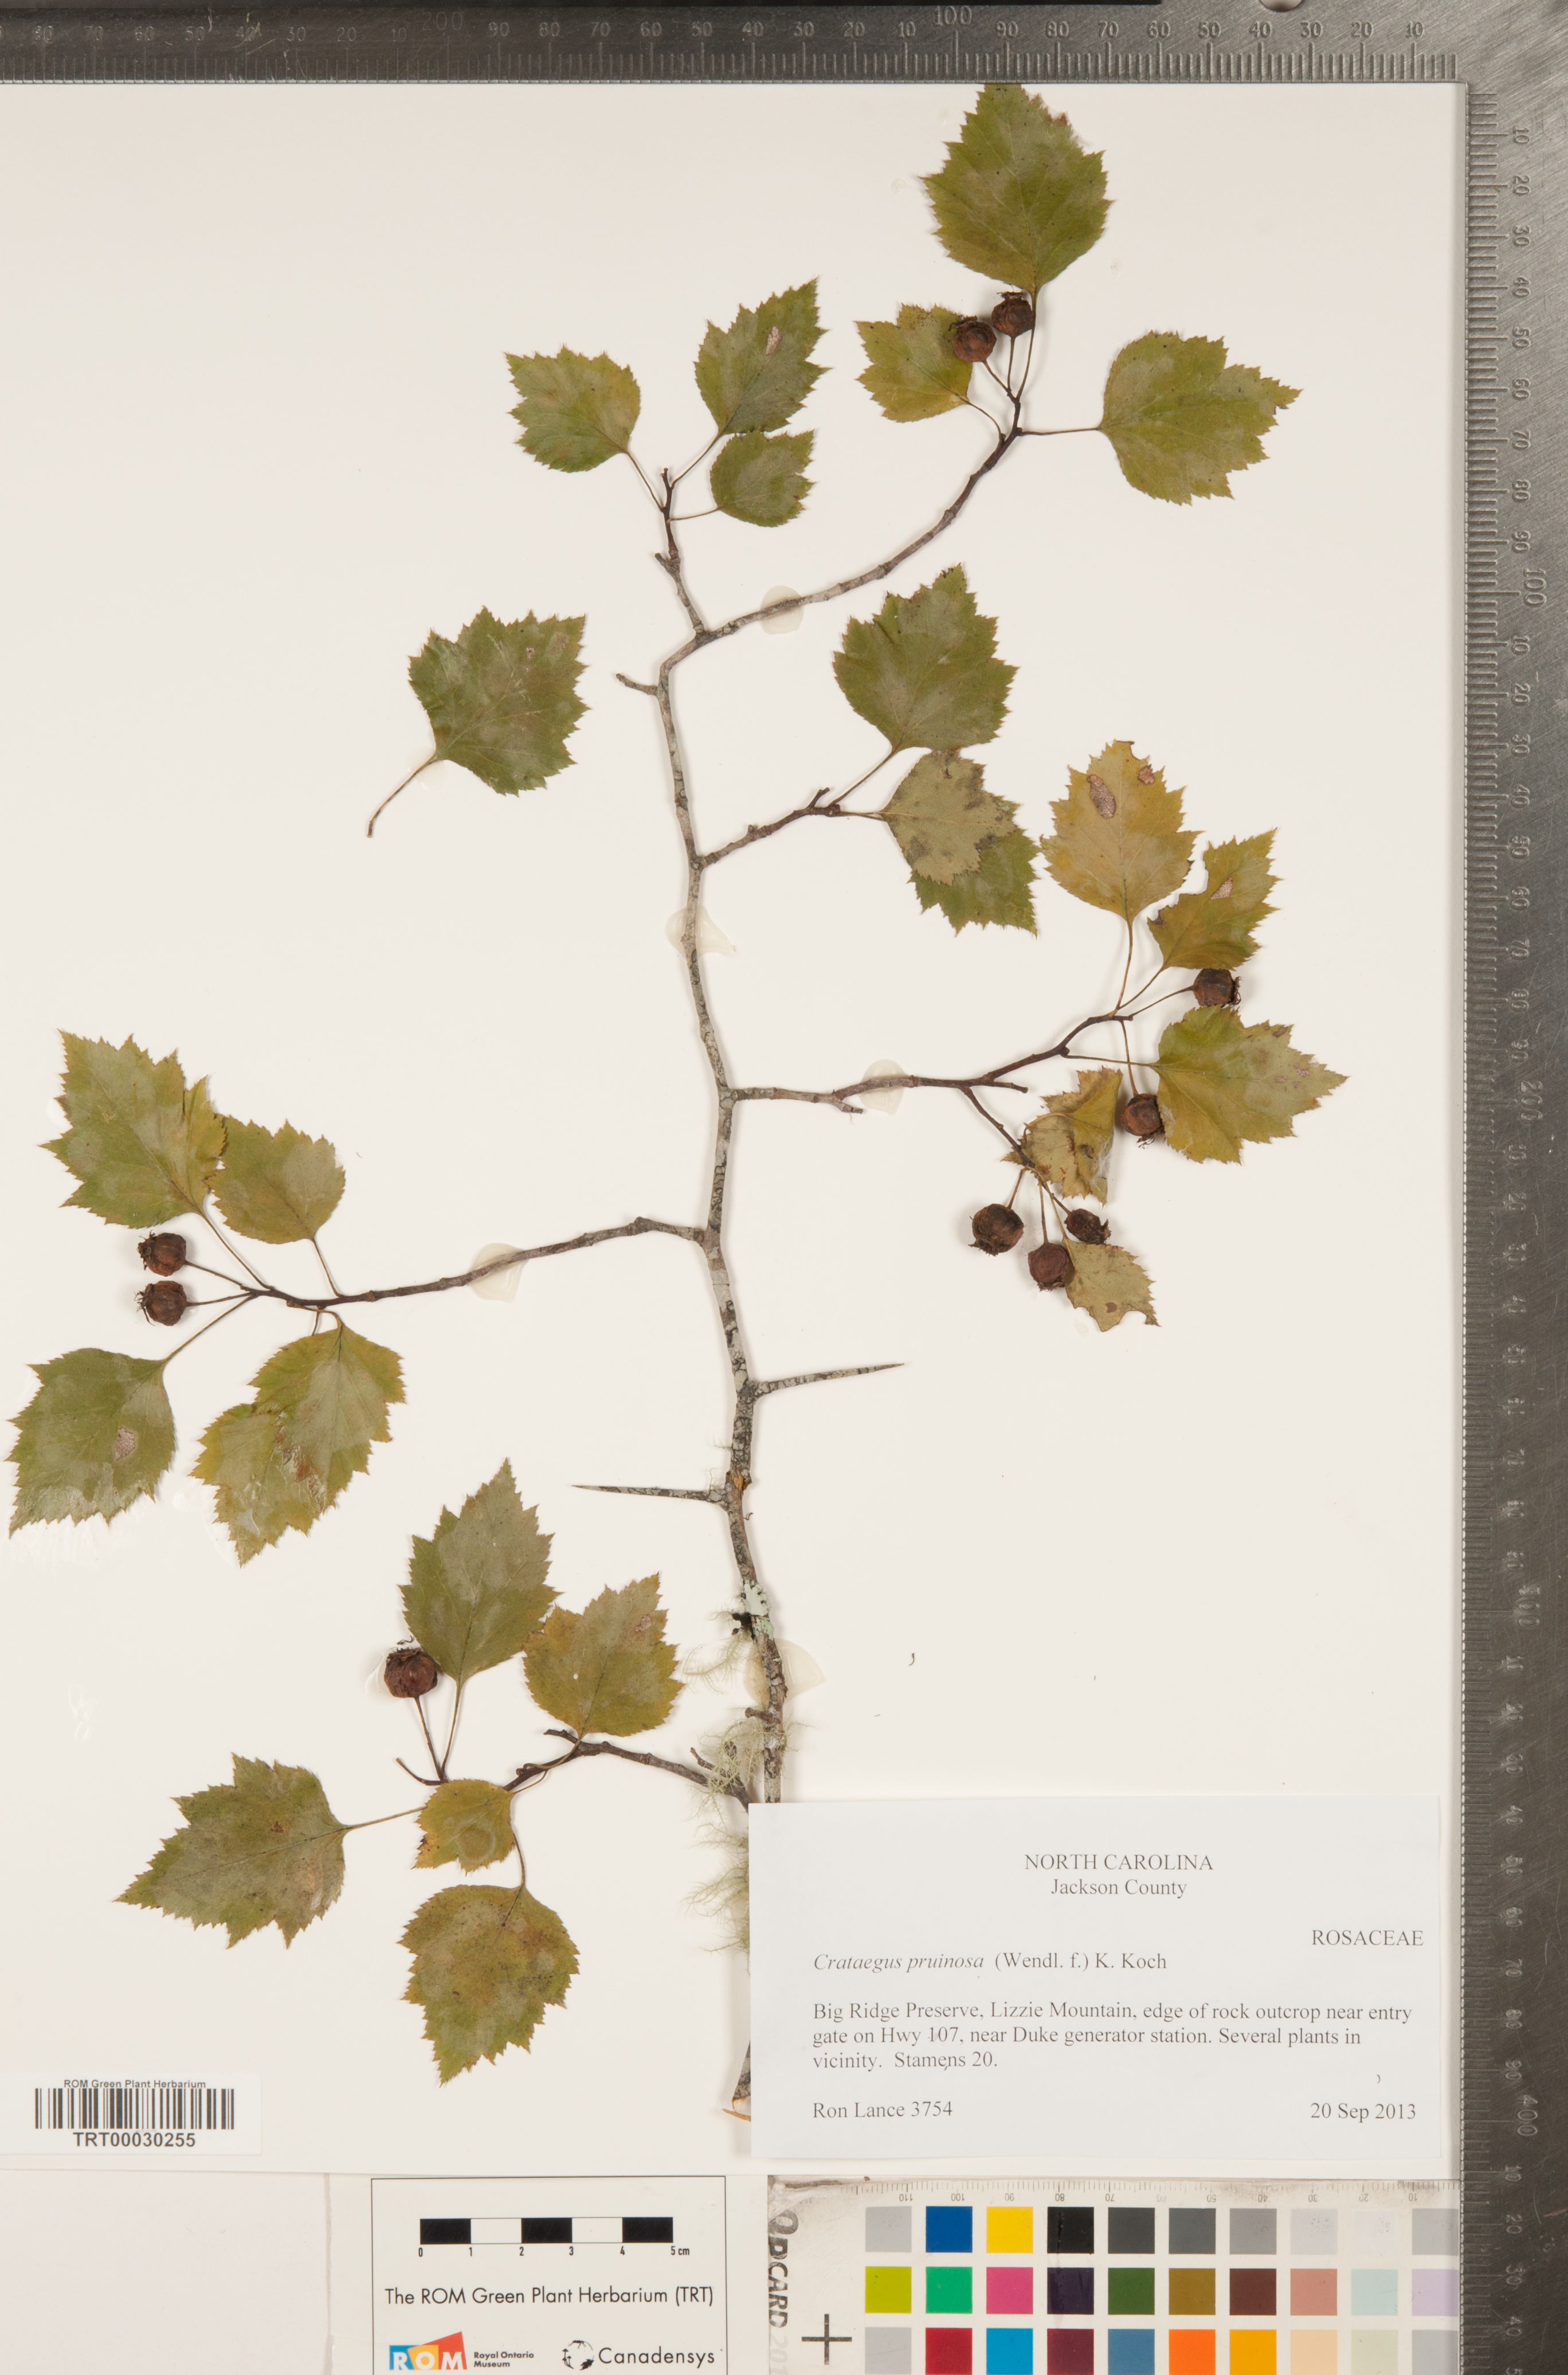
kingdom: Plantae
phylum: Tracheophyta
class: Magnoliopsida
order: Rosales
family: Rosaceae
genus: Crataegus
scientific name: Crataegus pruinosa
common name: Waxy-fruit hawthorn
